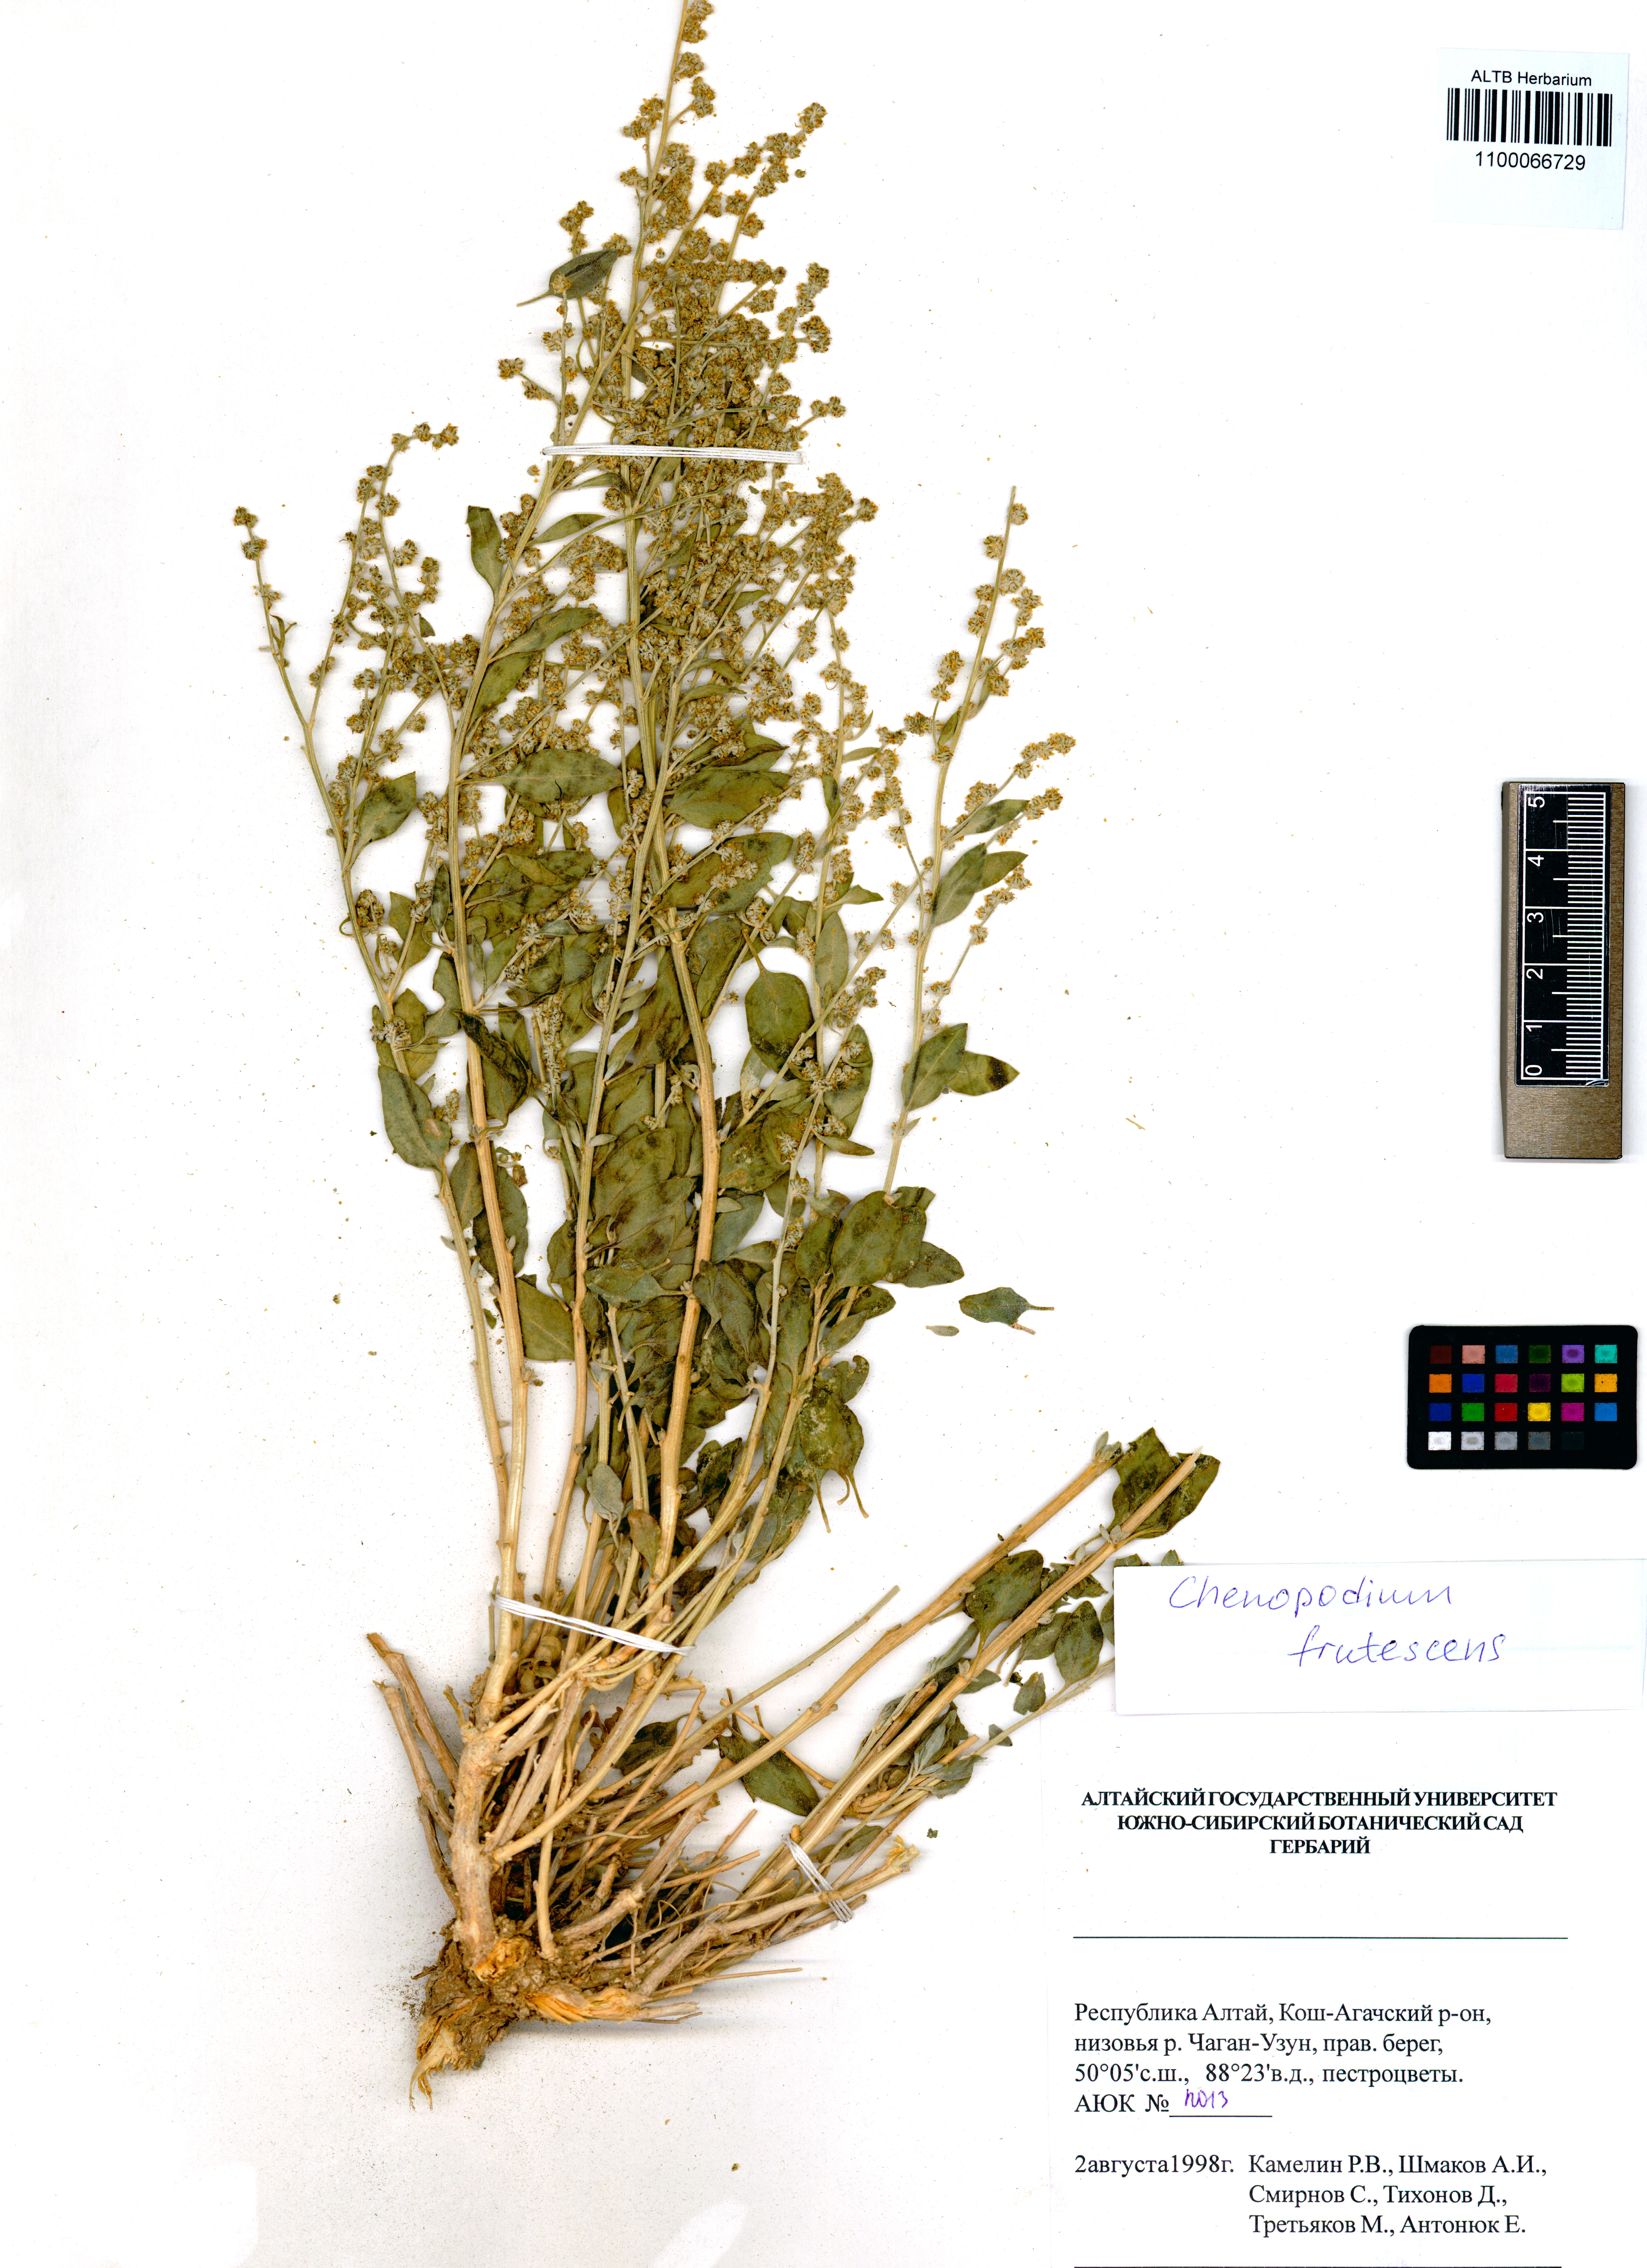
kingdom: Plantae
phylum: Tracheophyta
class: Magnoliopsida
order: Caryophyllales
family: Amaranthaceae
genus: Chenopodium
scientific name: Chenopodium frutescens
